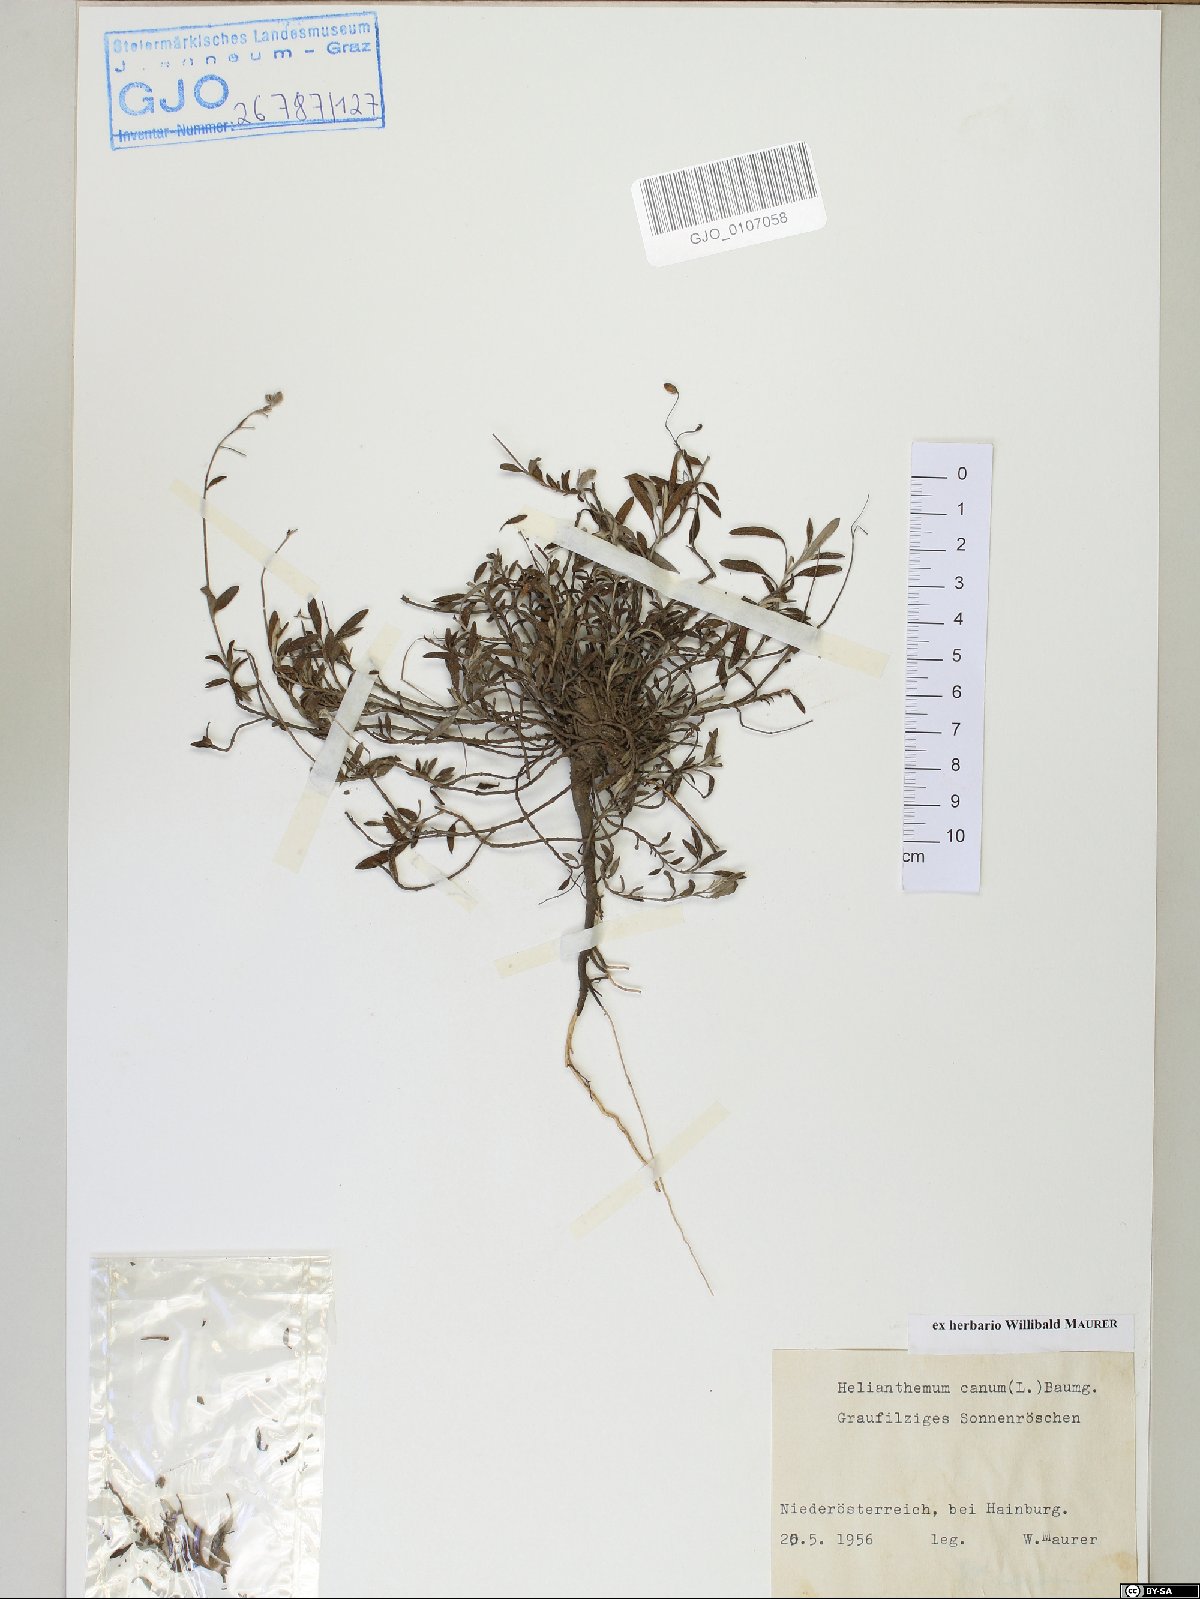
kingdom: Plantae
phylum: Tracheophyta
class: Magnoliopsida
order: Malvales
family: Cistaceae
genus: Helianthemum
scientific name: Helianthemum canum
